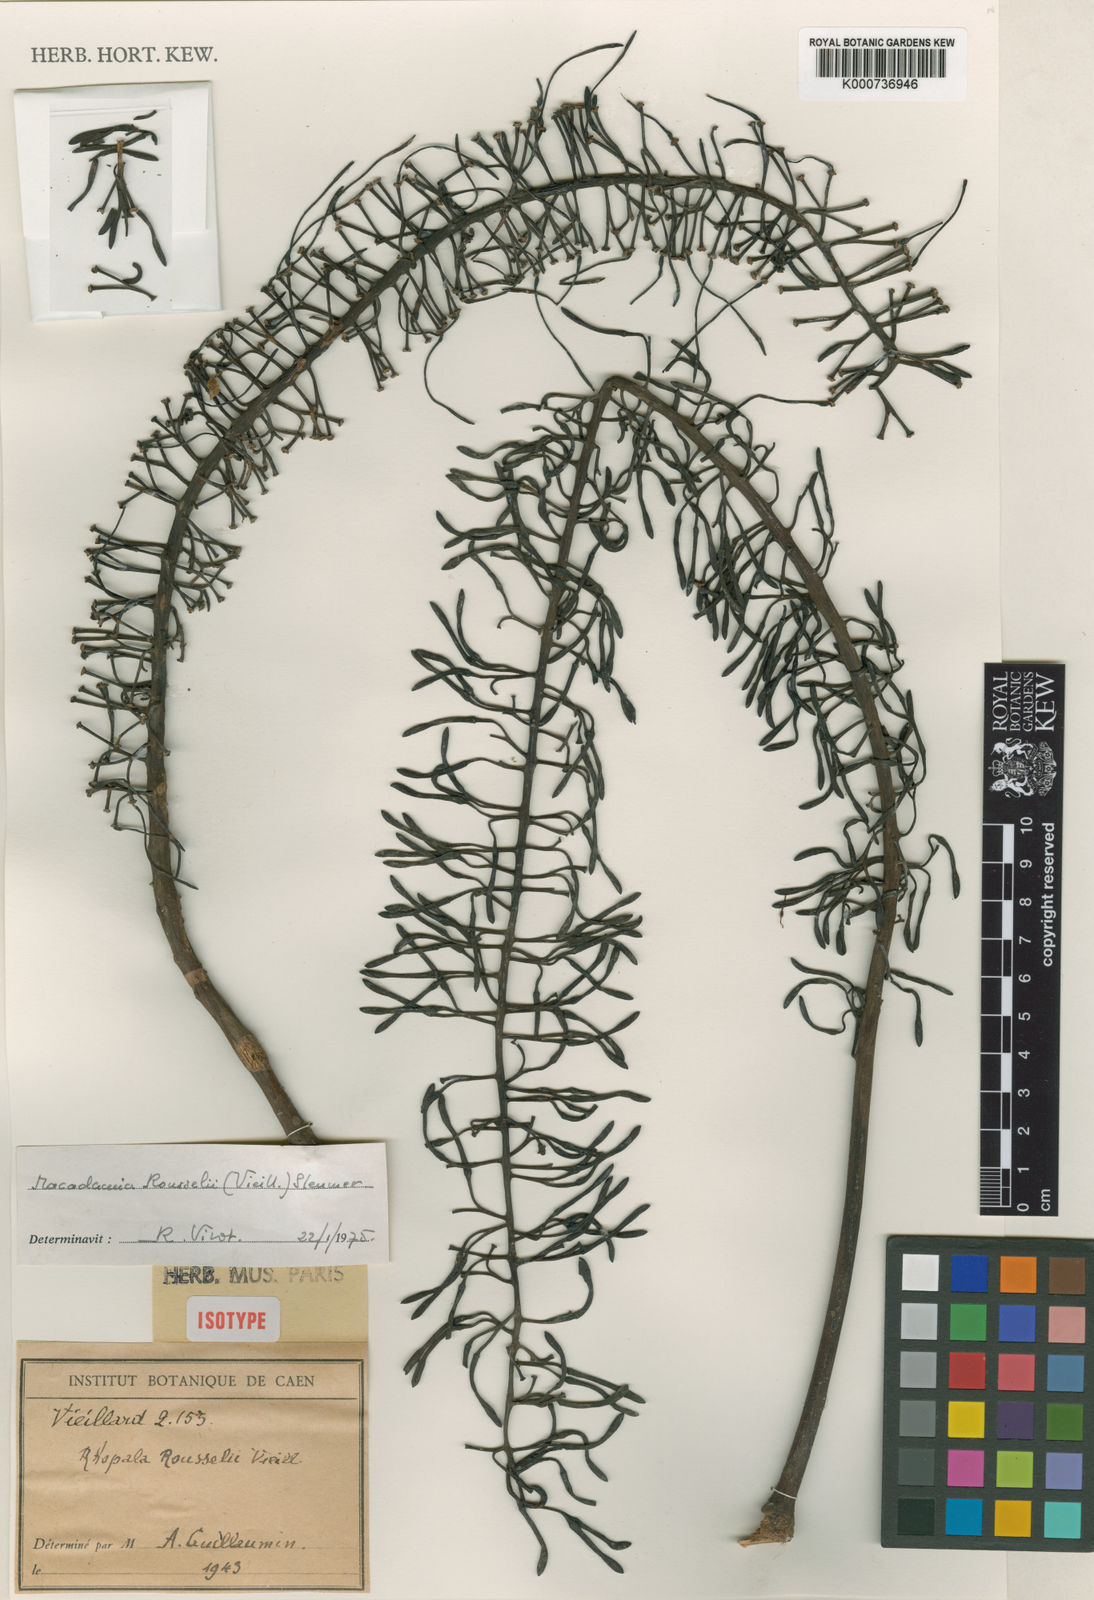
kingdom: Plantae
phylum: Tracheophyta
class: Magnoliopsida
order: Proteales
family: Proteaceae
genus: Virotia
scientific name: Virotia rousselii
